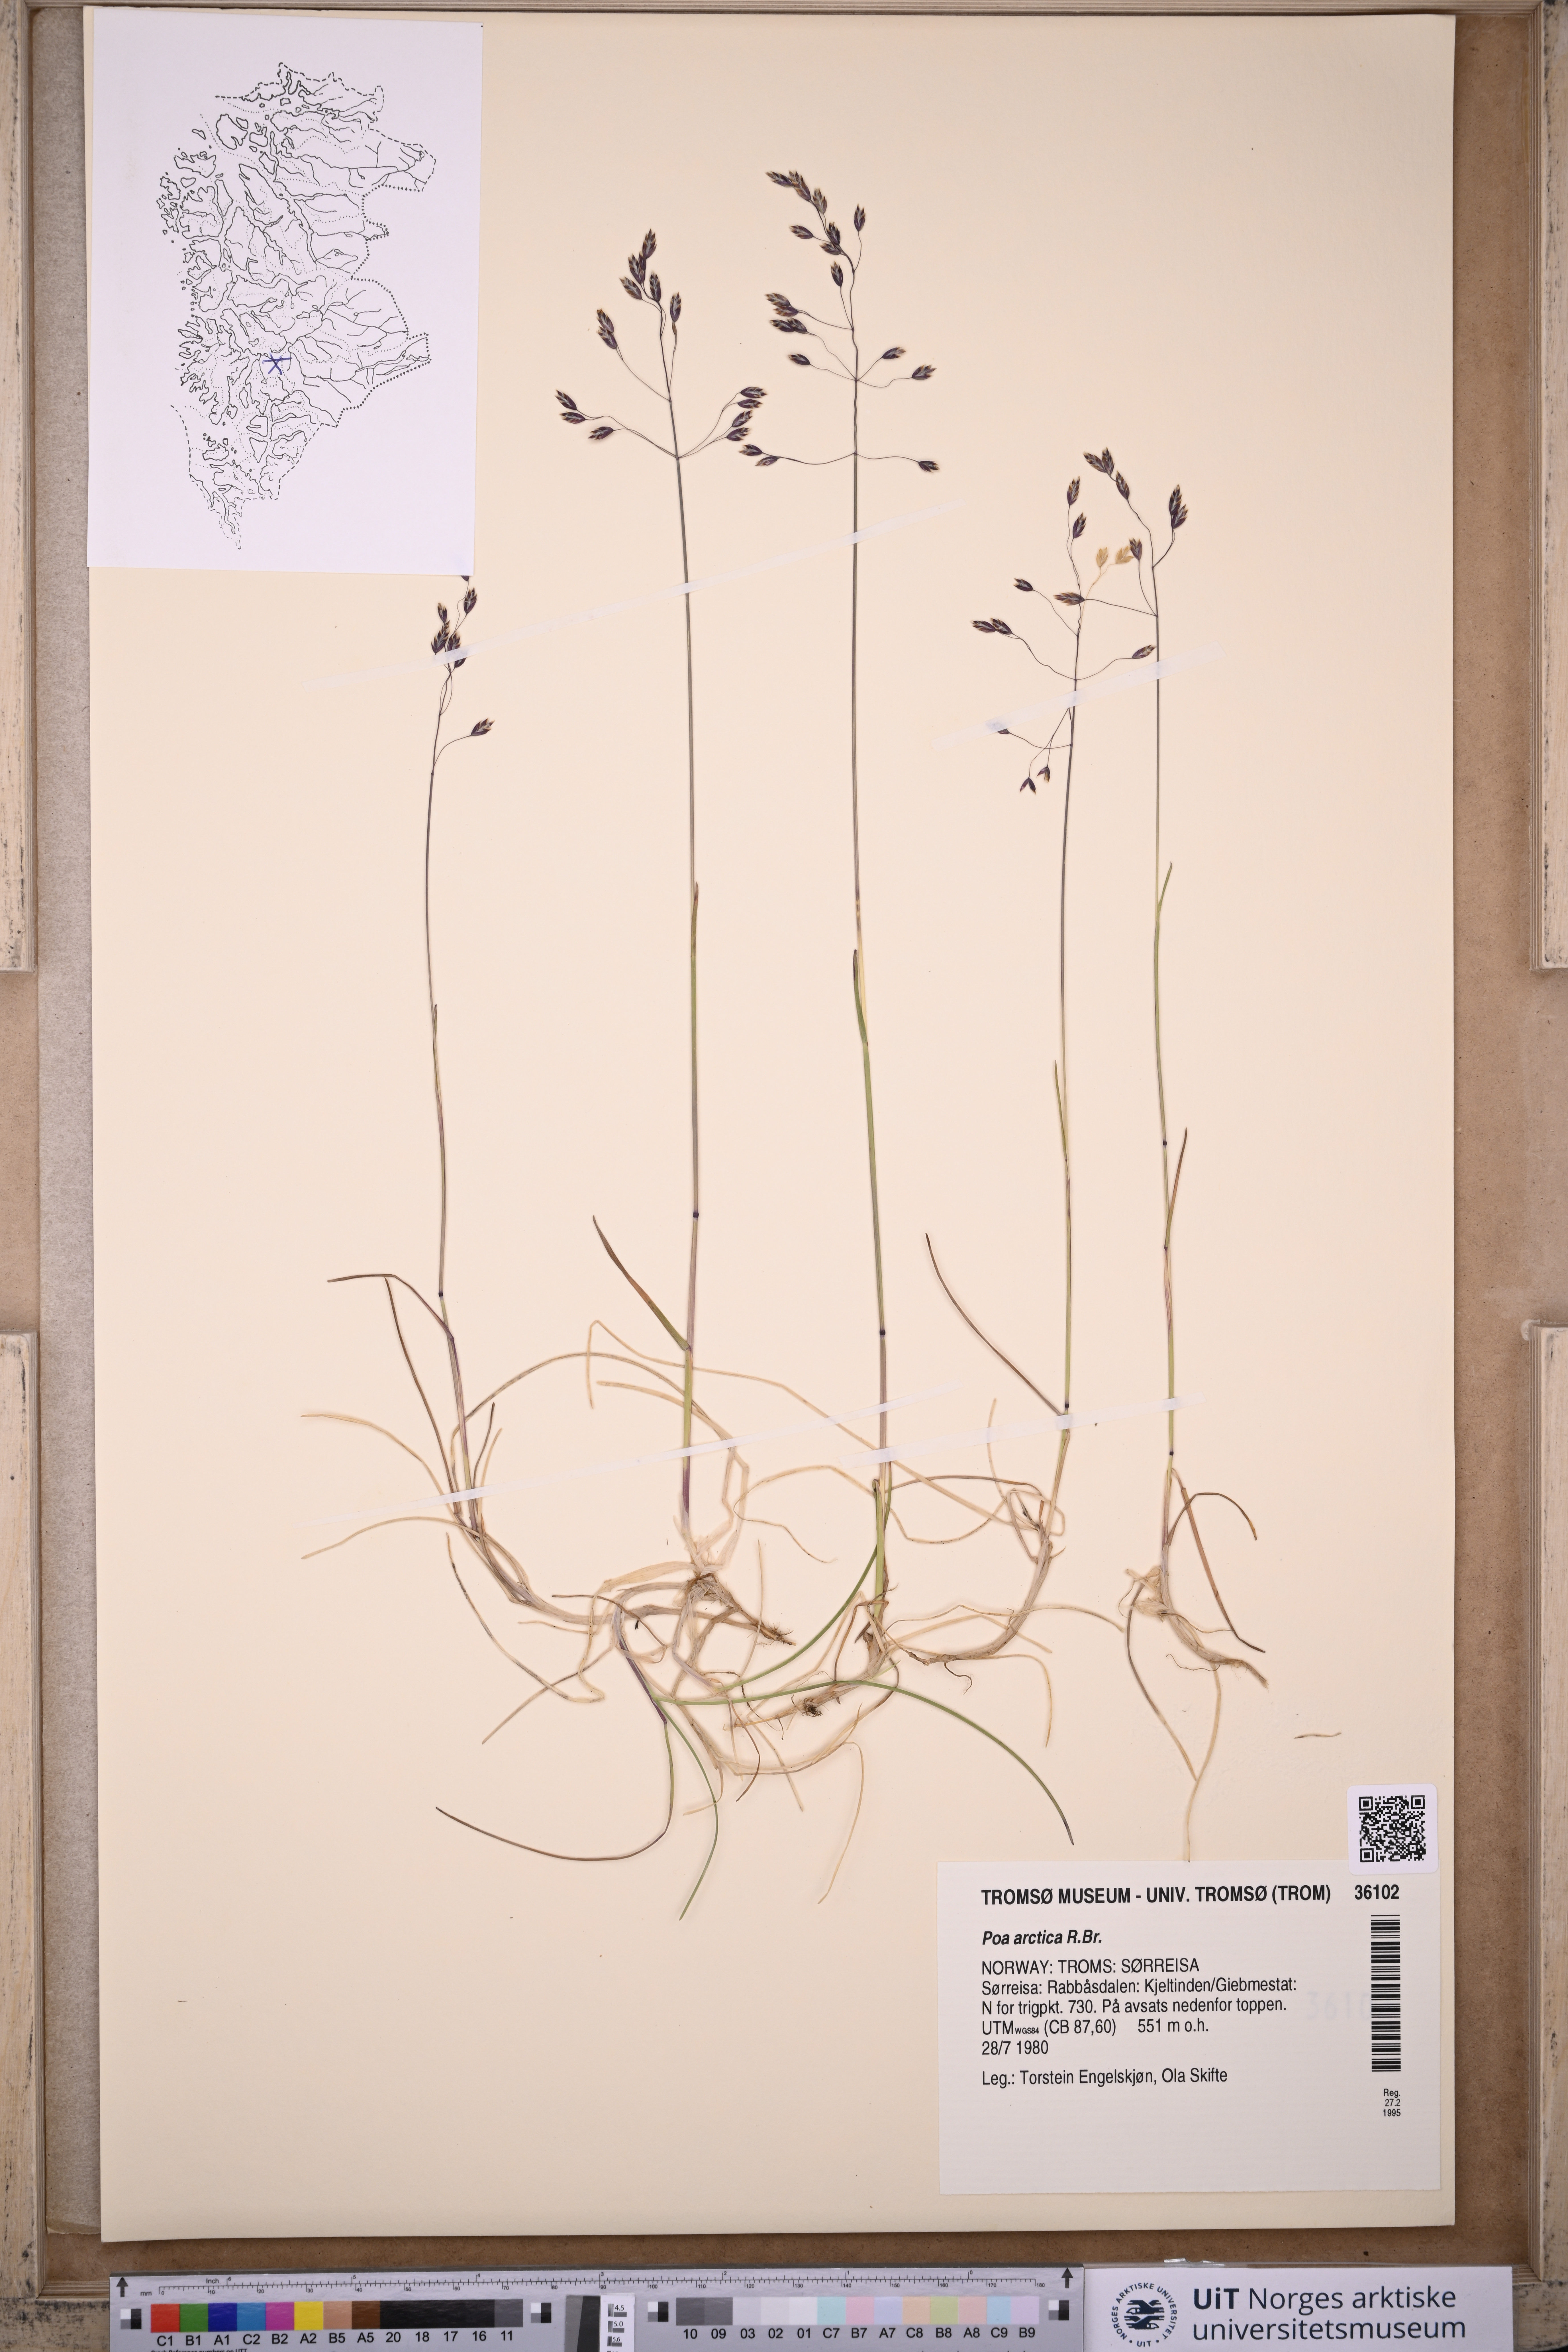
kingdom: Plantae
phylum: Tracheophyta
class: Liliopsida
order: Poales
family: Poaceae
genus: Poa
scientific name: Poa arctica
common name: Arctic bluegrass
